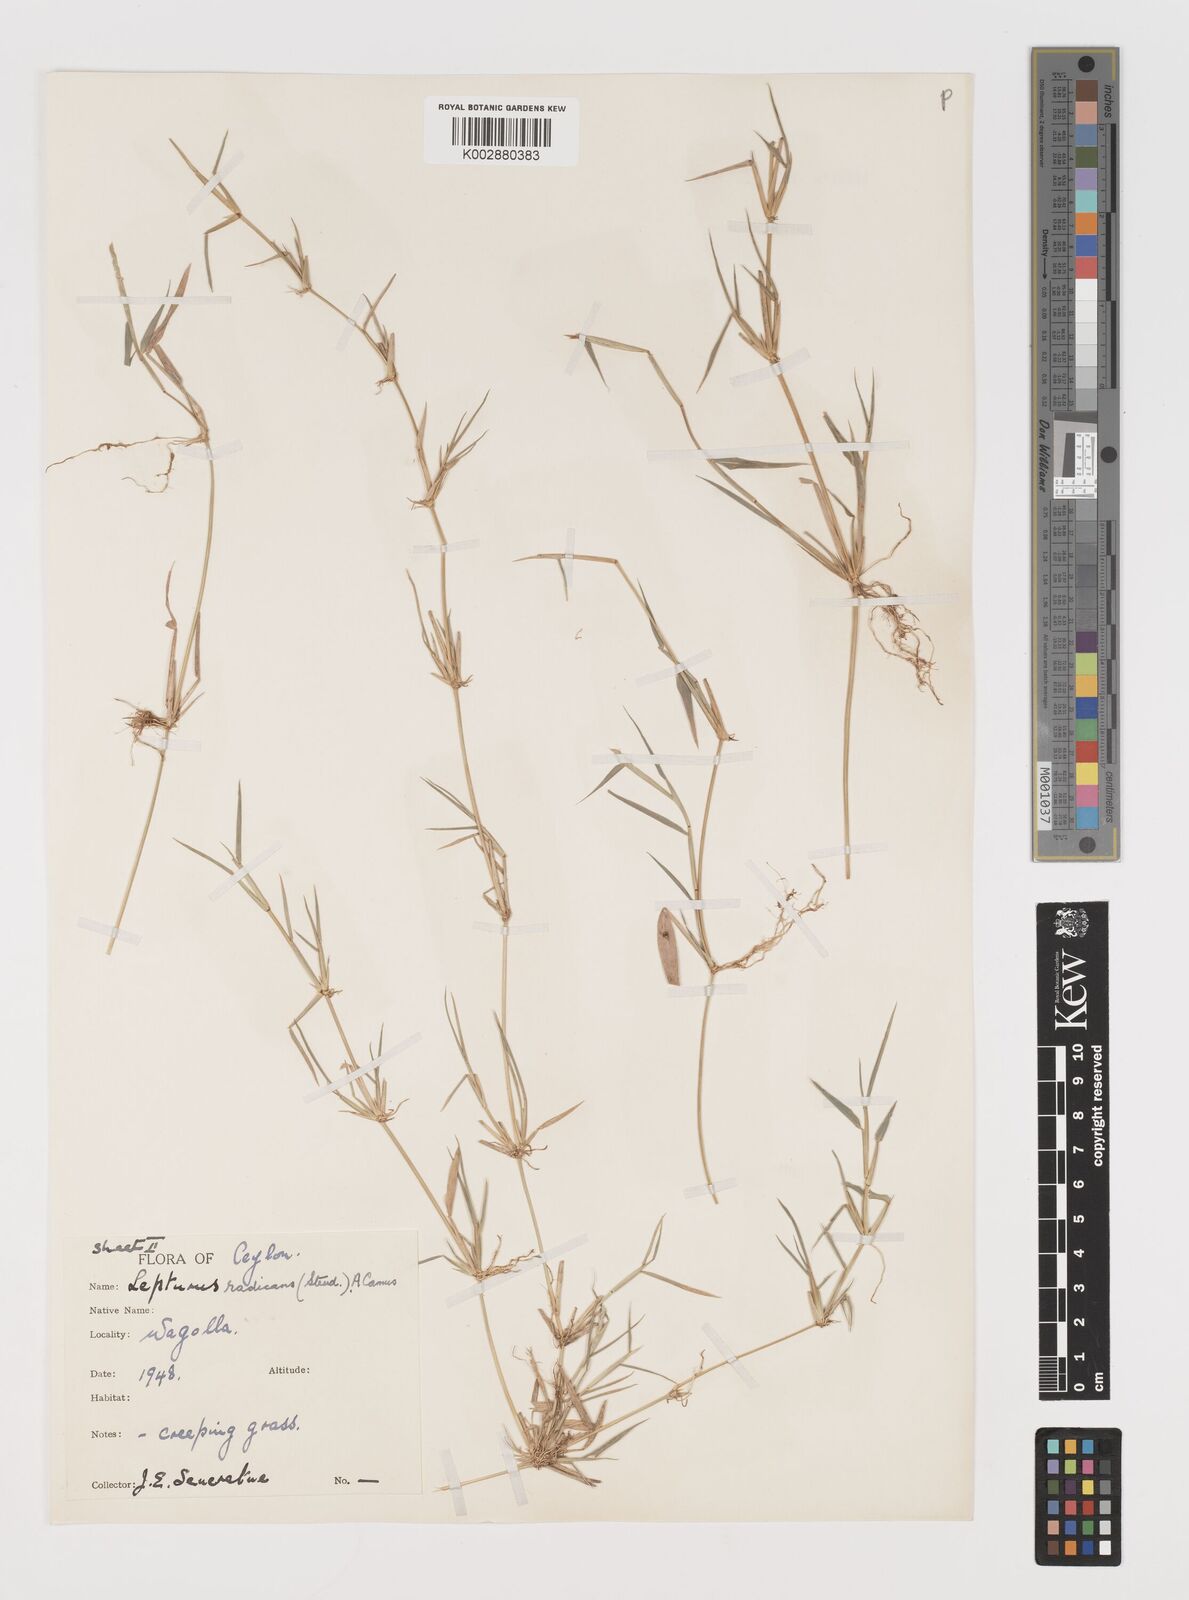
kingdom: Plantae
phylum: Tracheophyta
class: Liliopsida
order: Poales
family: Poaceae
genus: Lepturus
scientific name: Lepturus radicans
